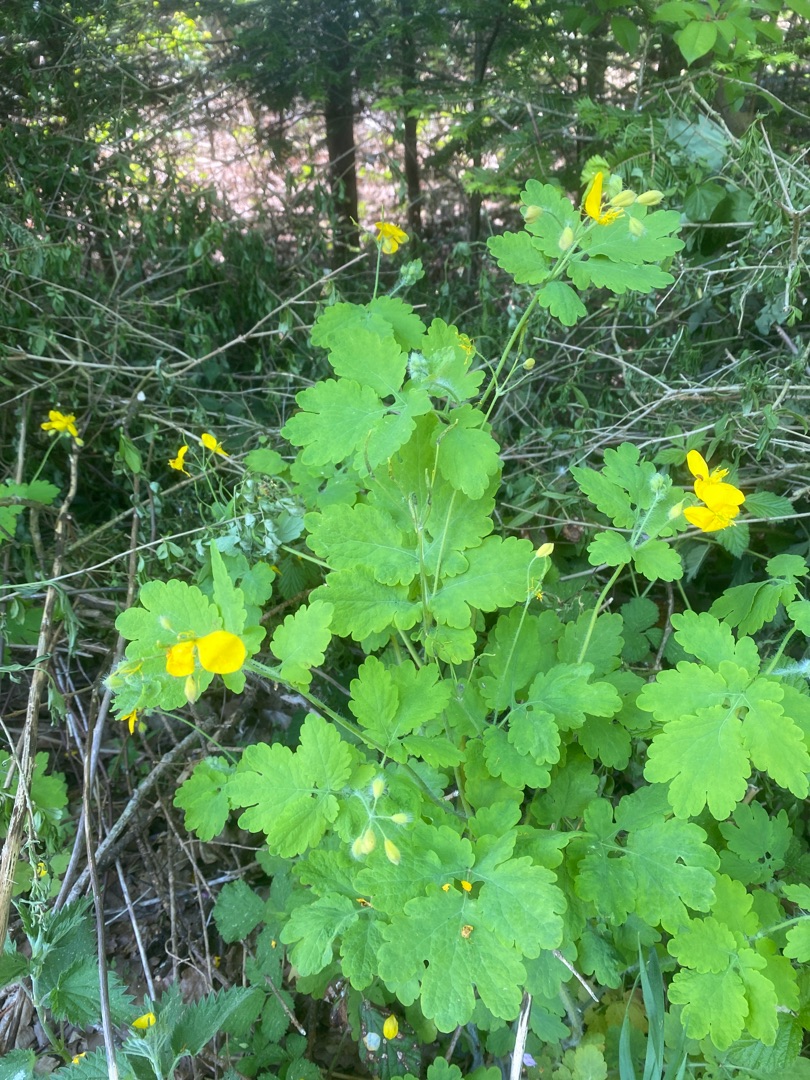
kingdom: Plantae
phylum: Tracheophyta
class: Magnoliopsida
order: Ranunculales
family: Papaveraceae
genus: Chelidonium
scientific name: Chelidonium majus
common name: Svaleurt
